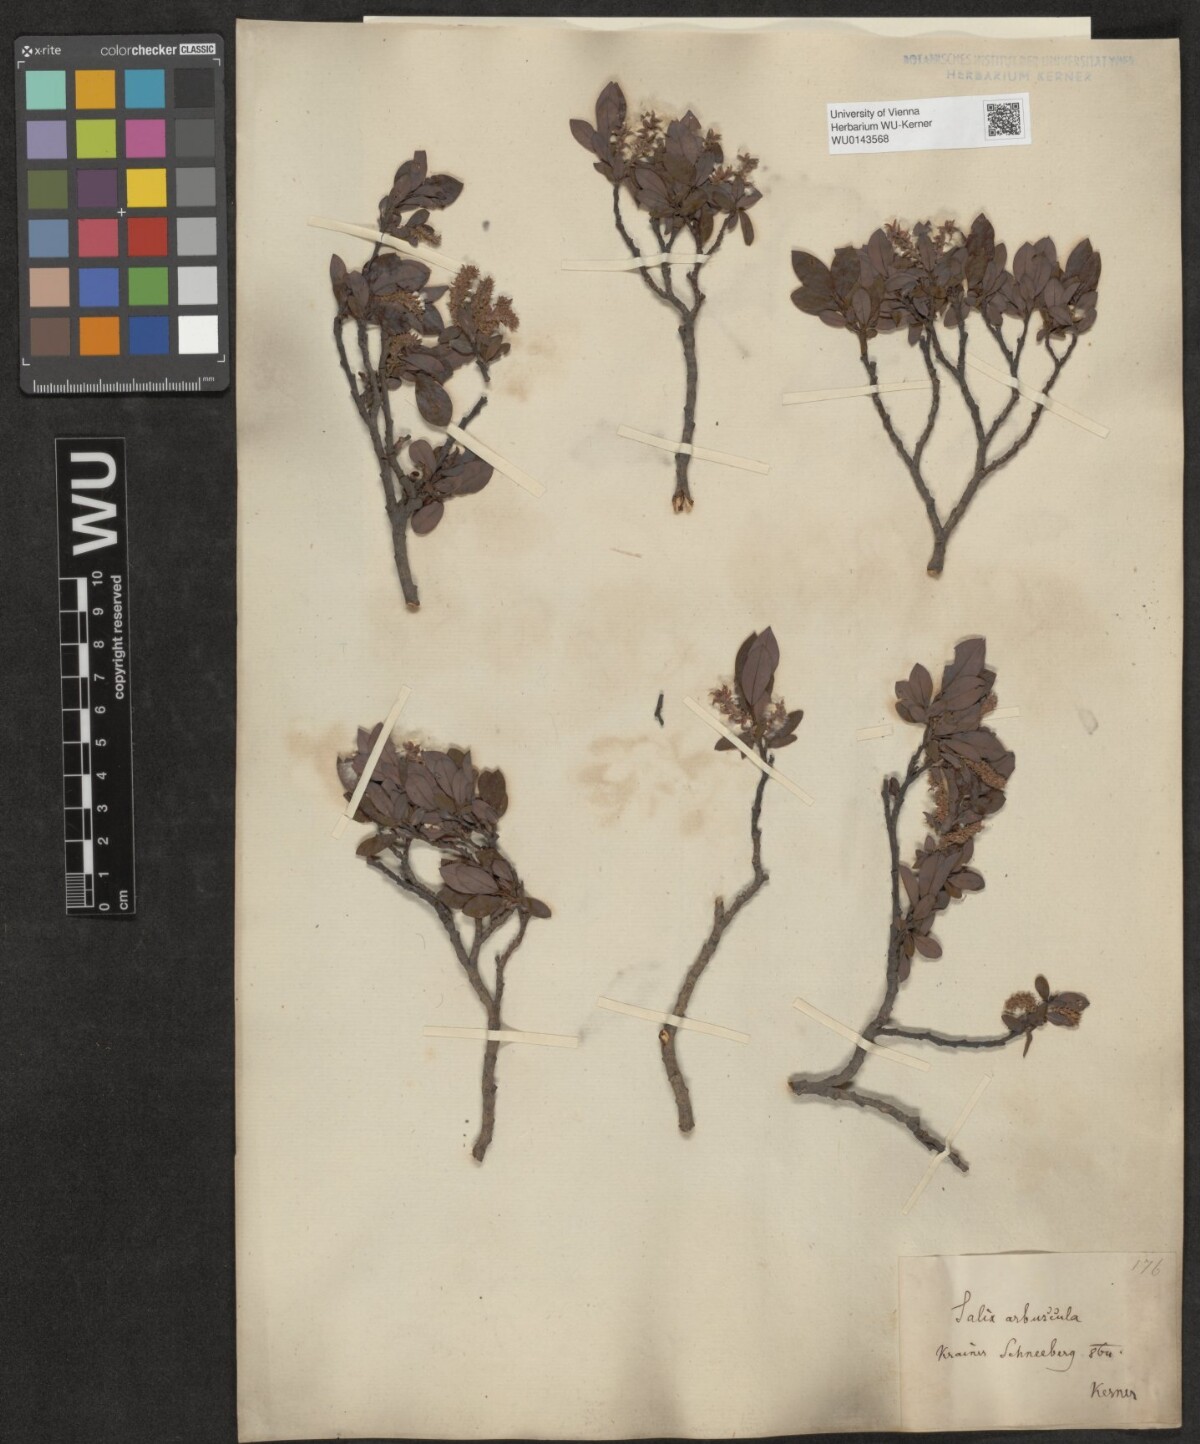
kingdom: Plantae
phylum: Tracheophyta
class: Magnoliopsida
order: Malpighiales
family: Salicaceae
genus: Salix
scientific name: Salix waldsteiniana
